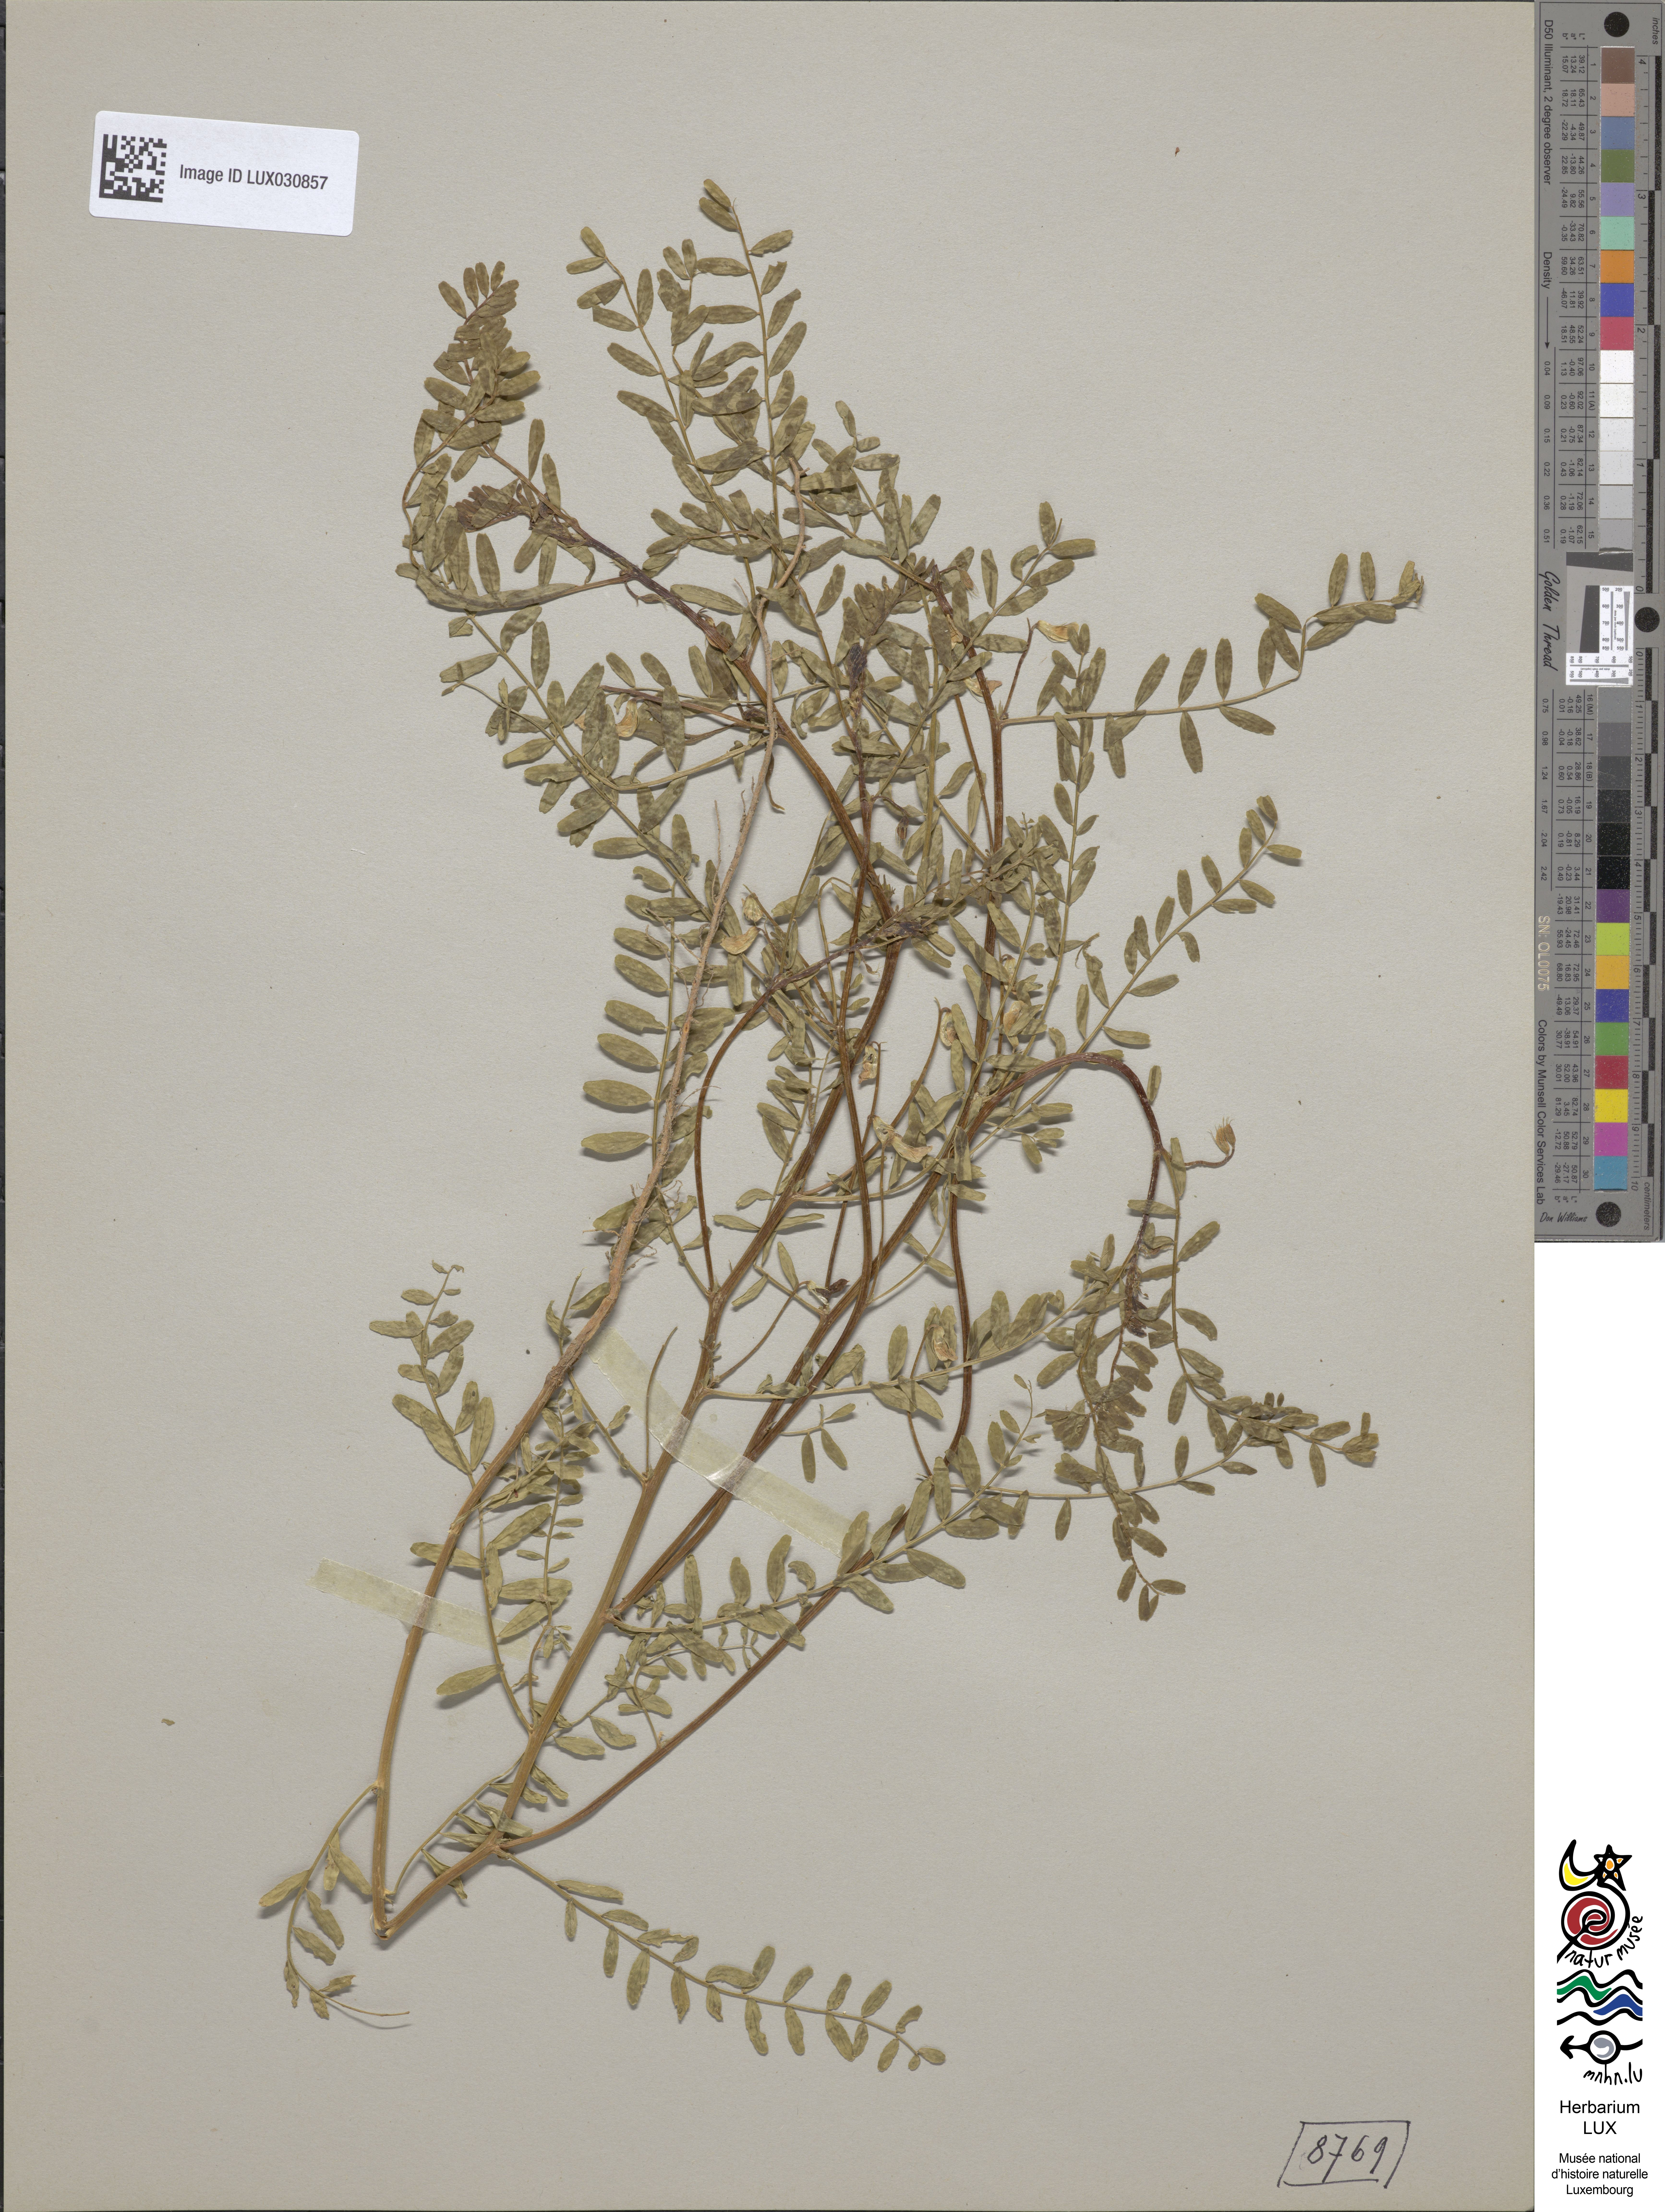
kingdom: Plantae
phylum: Tracheophyta
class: Magnoliopsida
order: Fabales
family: Fabaceae
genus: Vicia
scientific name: Vicia ervilia
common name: Bitter vetch
